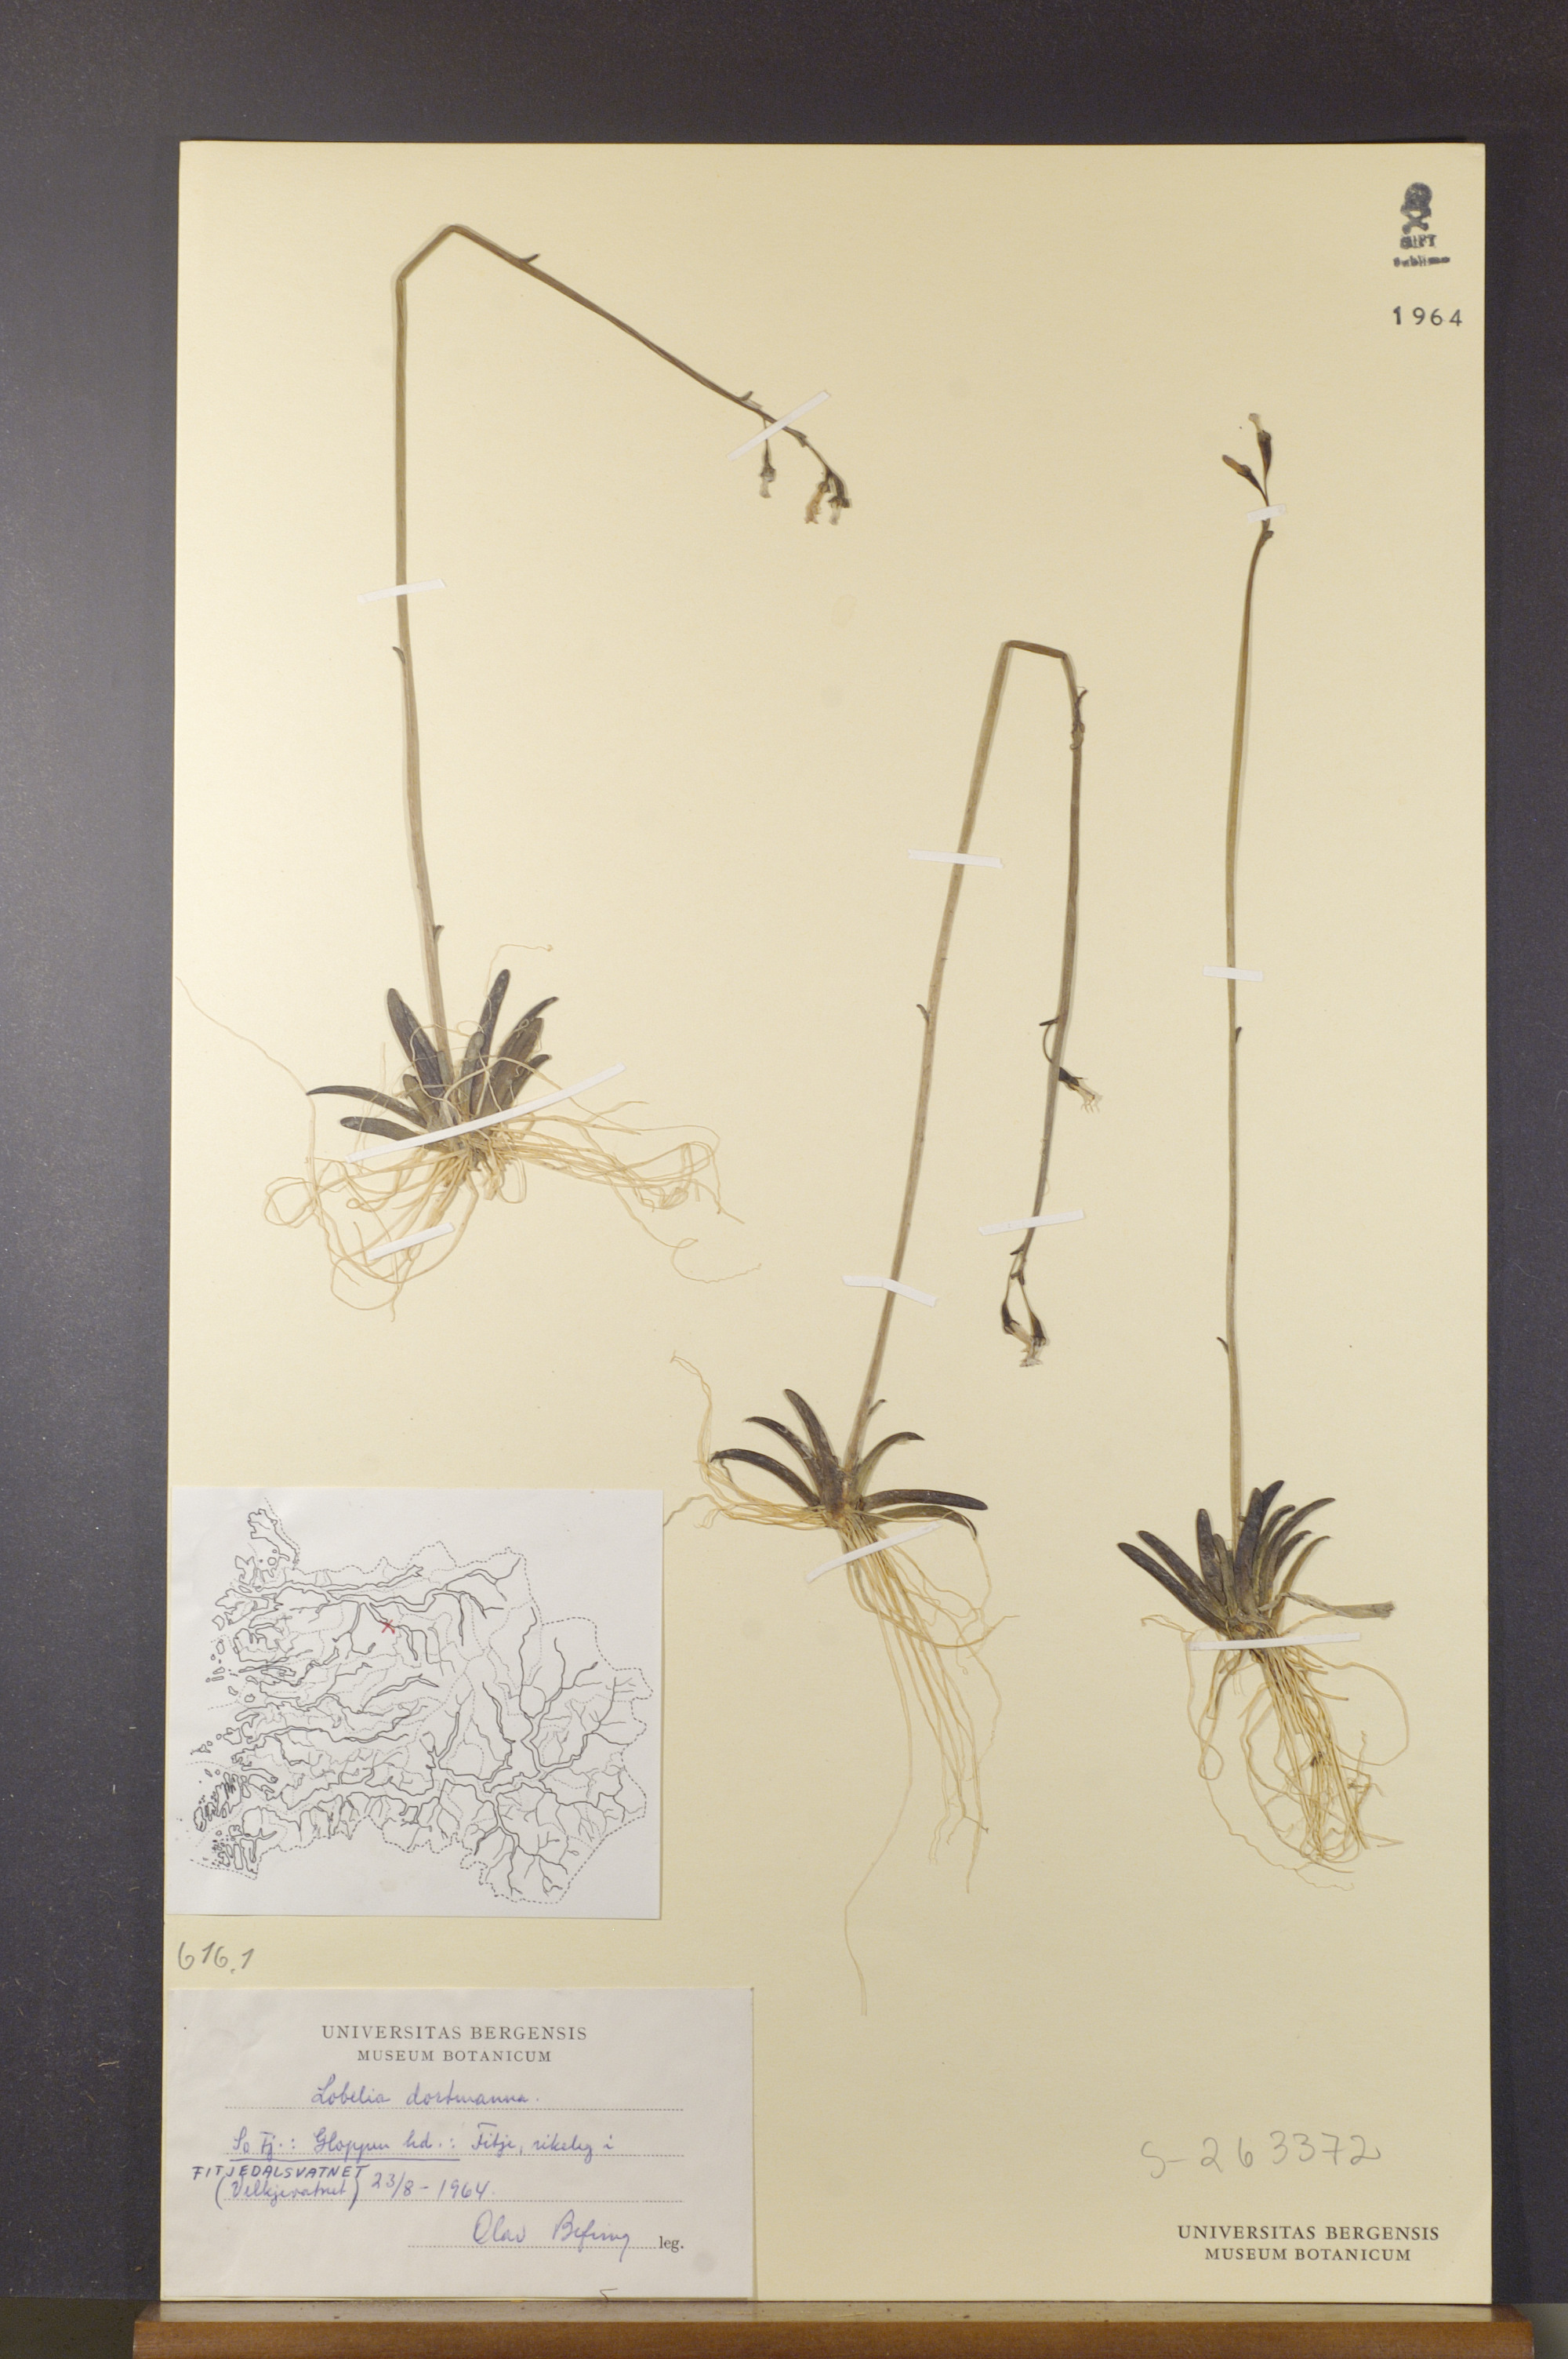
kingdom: Plantae
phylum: Tracheophyta
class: Magnoliopsida
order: Asterales
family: Campanulaceae
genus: Lobelia
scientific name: Lobelia dortmanna
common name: Water lobelia
